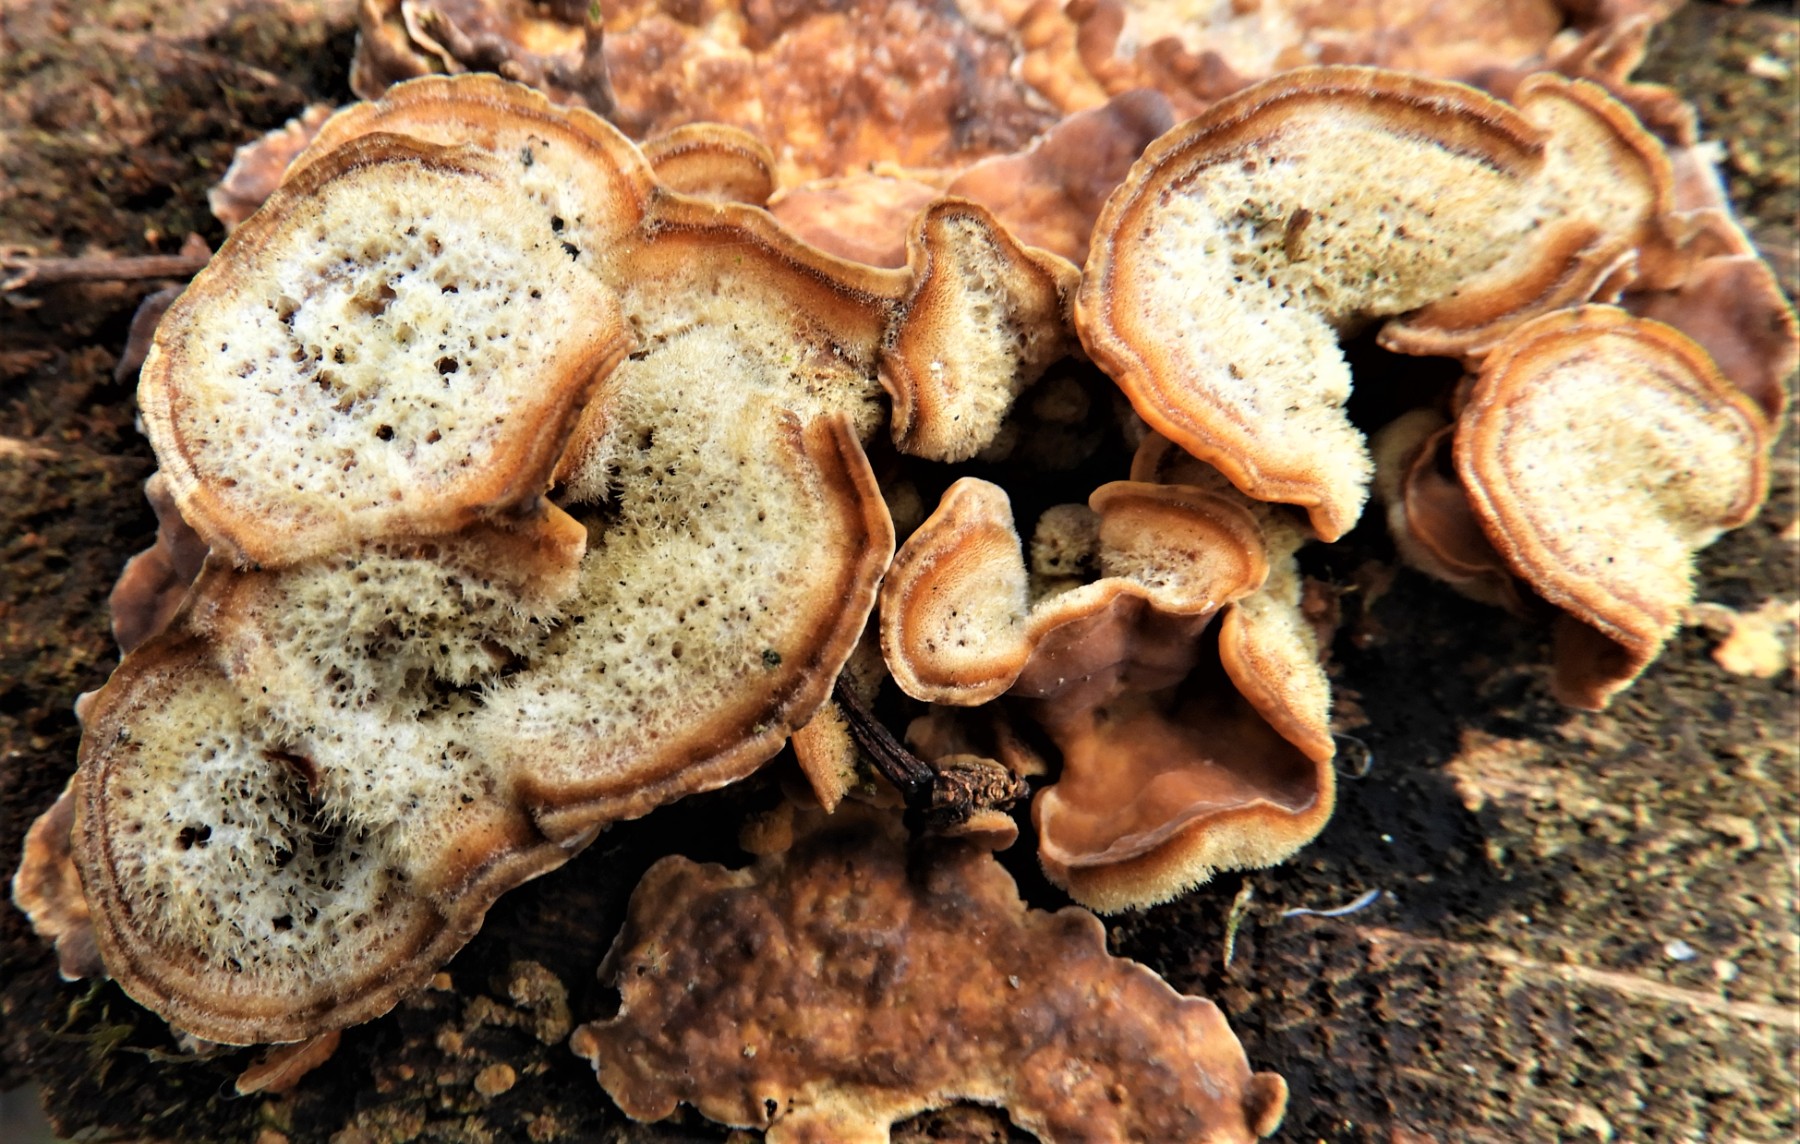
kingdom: Fungi
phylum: Basidiomycota
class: Agaricomycetes
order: Russulales
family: Stereaceae
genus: Stereum
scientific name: Stereum hirsutum
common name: håret lædersvamp
